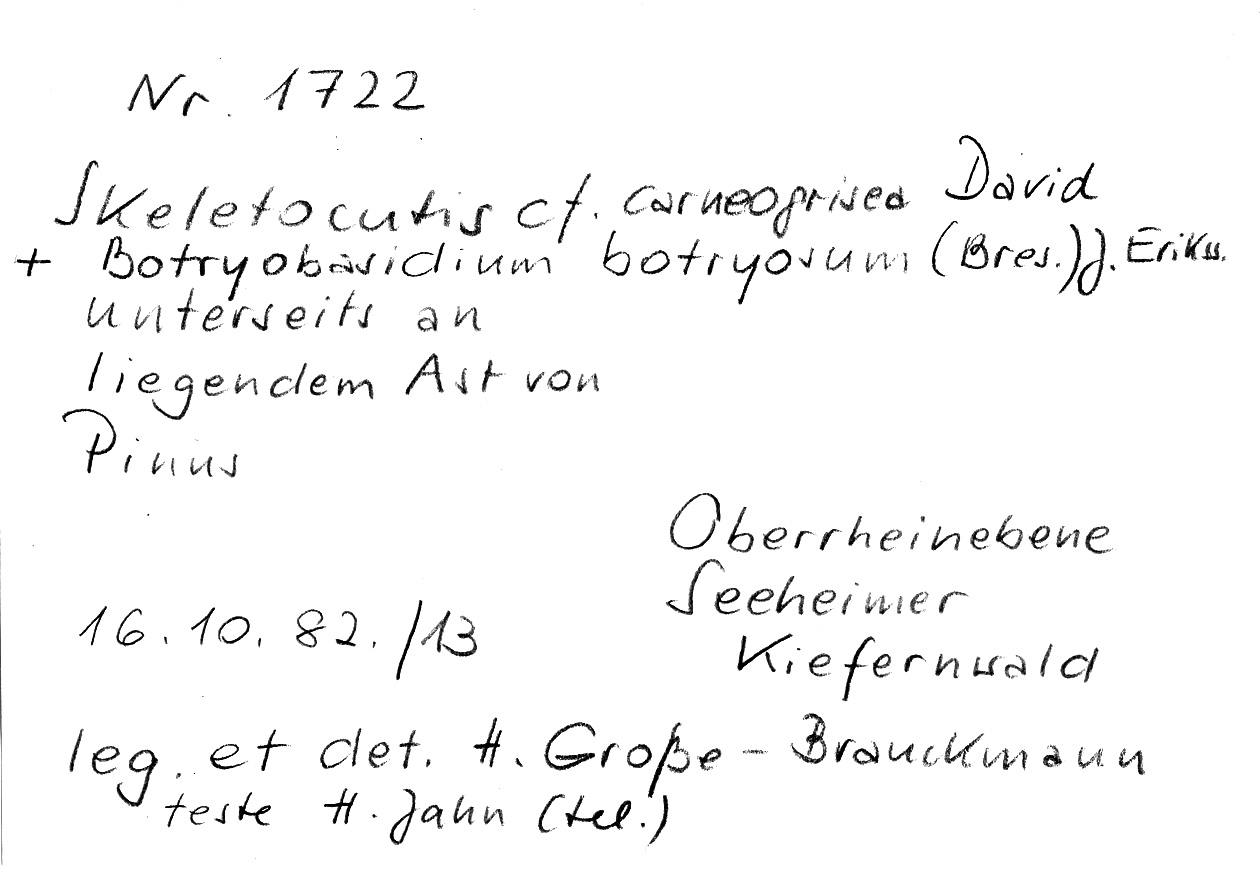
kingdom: Fungi
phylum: Basidiomycota
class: Agaricomycetes
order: Polyporales
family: Incrustoporiaceae
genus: Skeletocutis
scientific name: Skeletocutis carneogrisea
